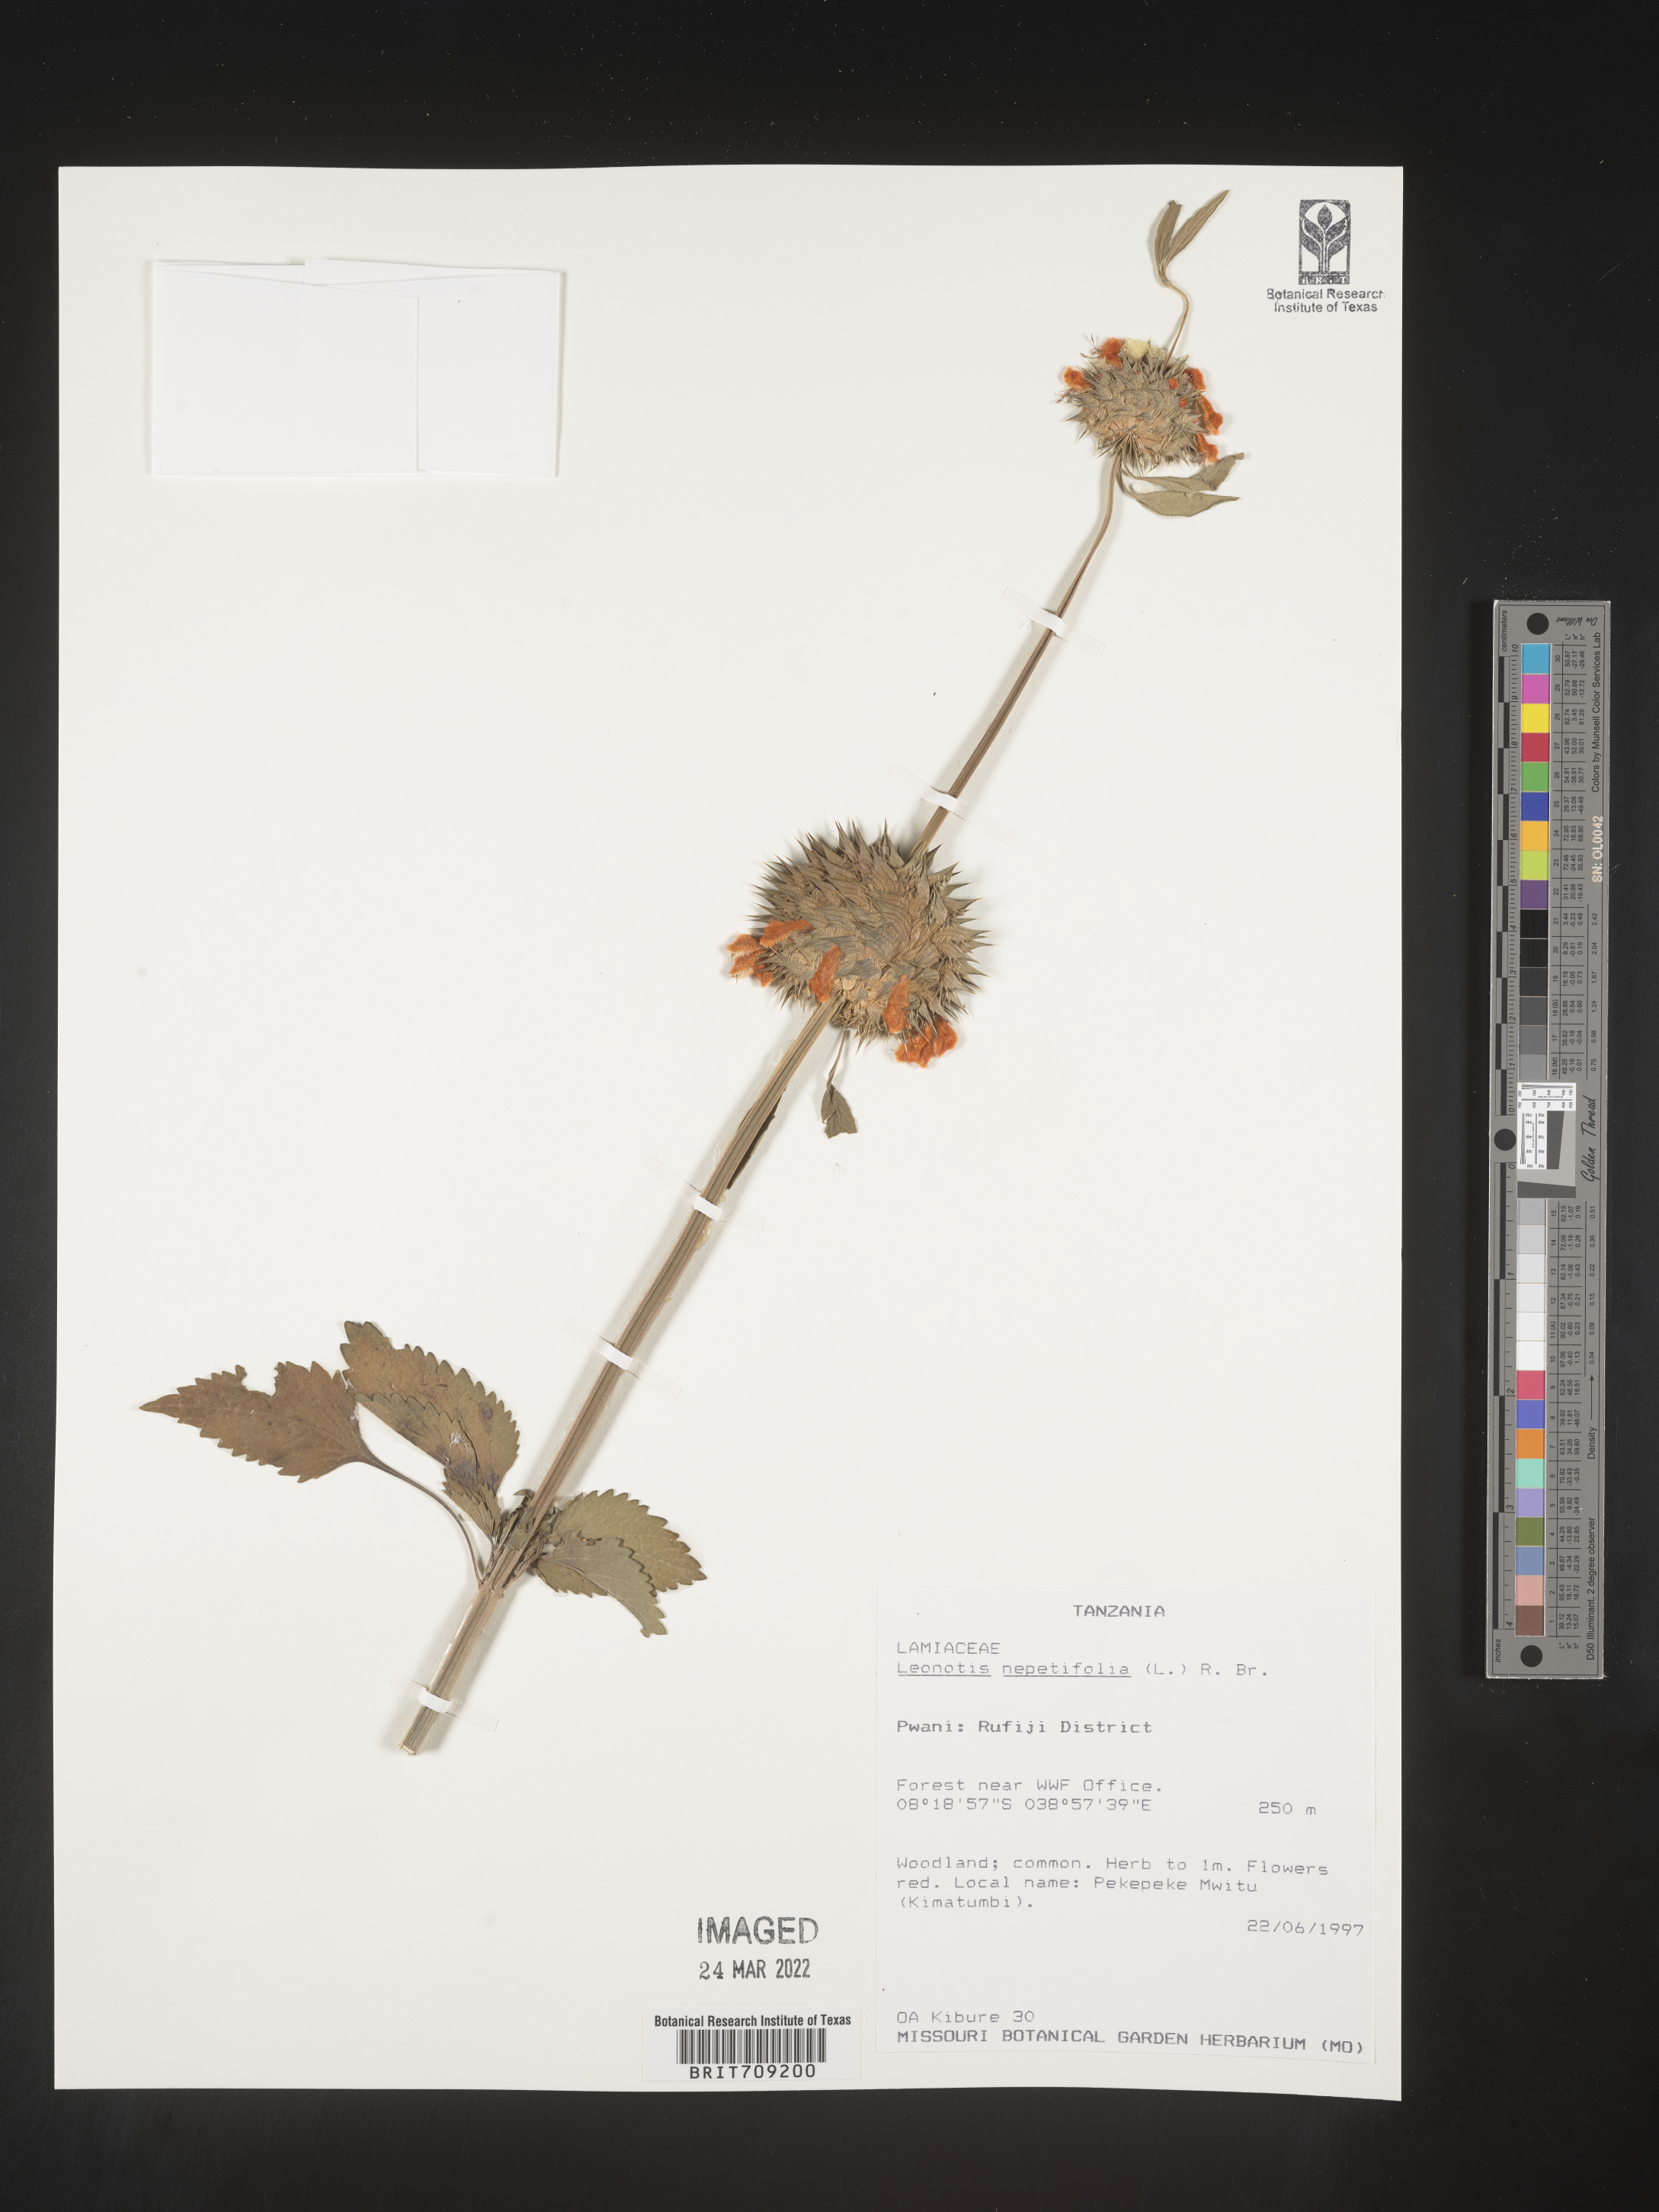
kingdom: Plantae
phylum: Tracheophyta
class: Magnoliopsida
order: Lamiales
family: Lamiaceae
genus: Leonotis
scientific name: Leonotis
